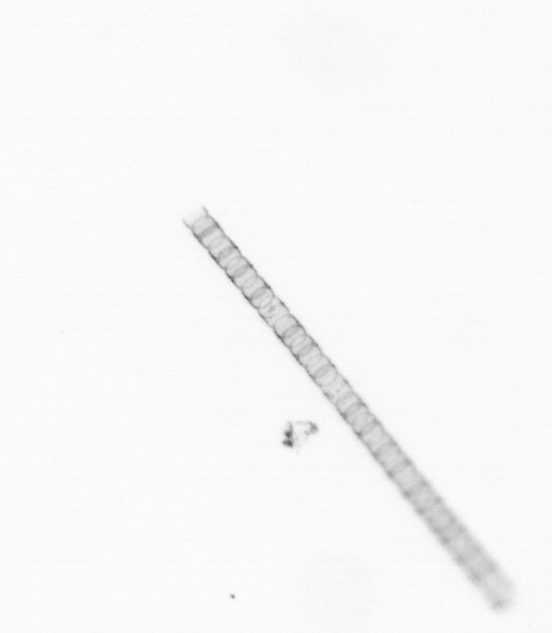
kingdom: Chromista
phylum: Ochrophyta
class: Bacillariophyceae
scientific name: Bacillariophyceae
